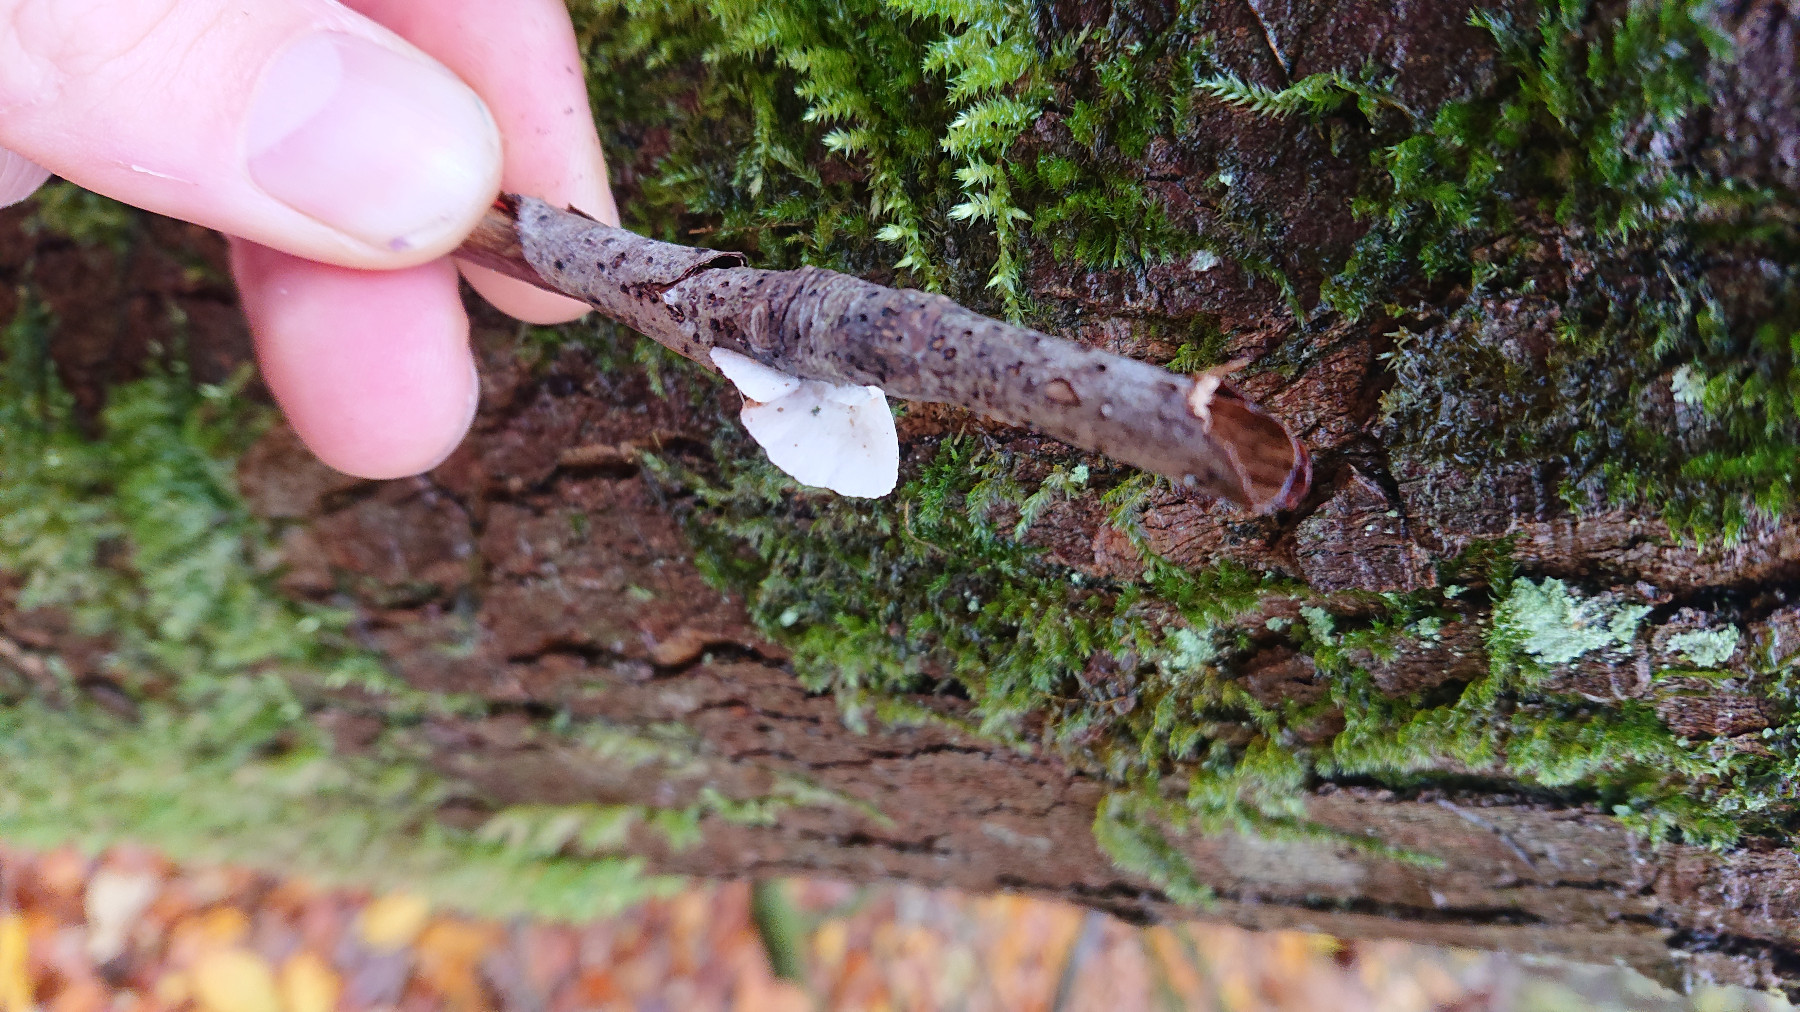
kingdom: Fungi
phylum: Basidiomycota
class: Agaricomycetes
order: Agaricales
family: Crepidotaceae
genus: Crepidotus
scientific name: Crepidotus
